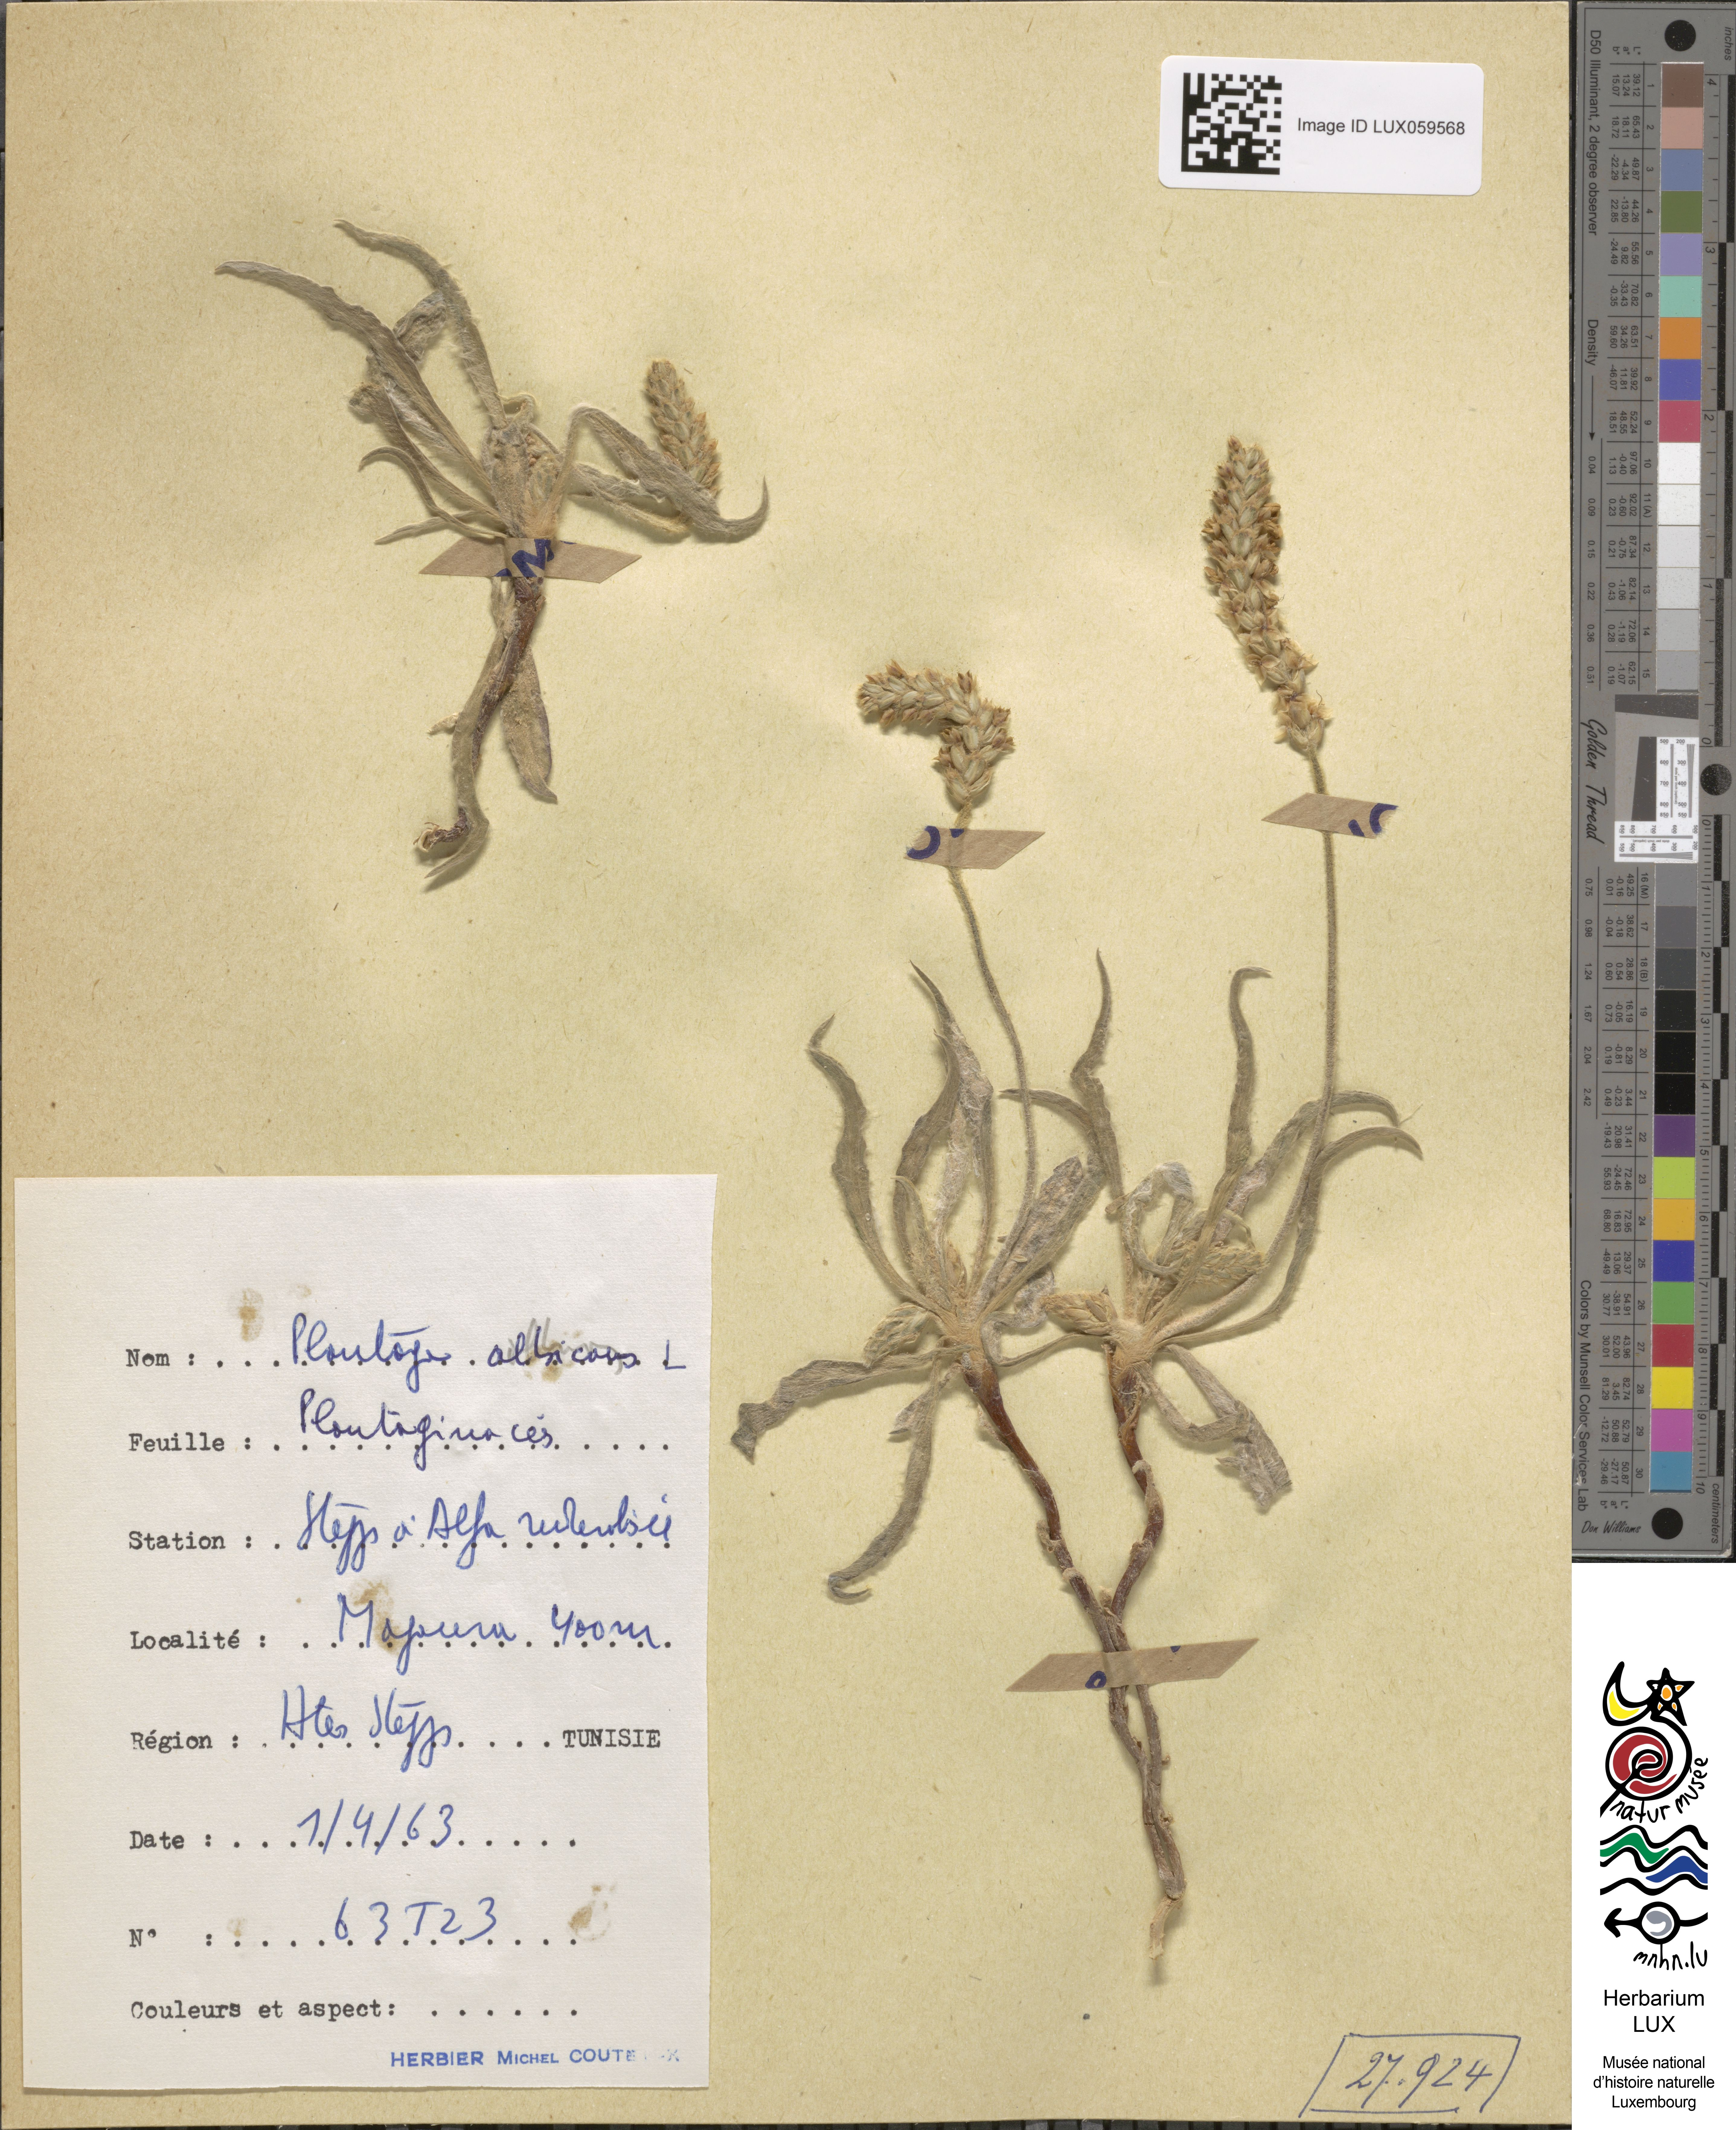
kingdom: Plantae
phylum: Tracheophyta
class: Magnoliopsida
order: Lamiales
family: Plantaginaceae
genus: Plantago
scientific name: Plantago albicans
